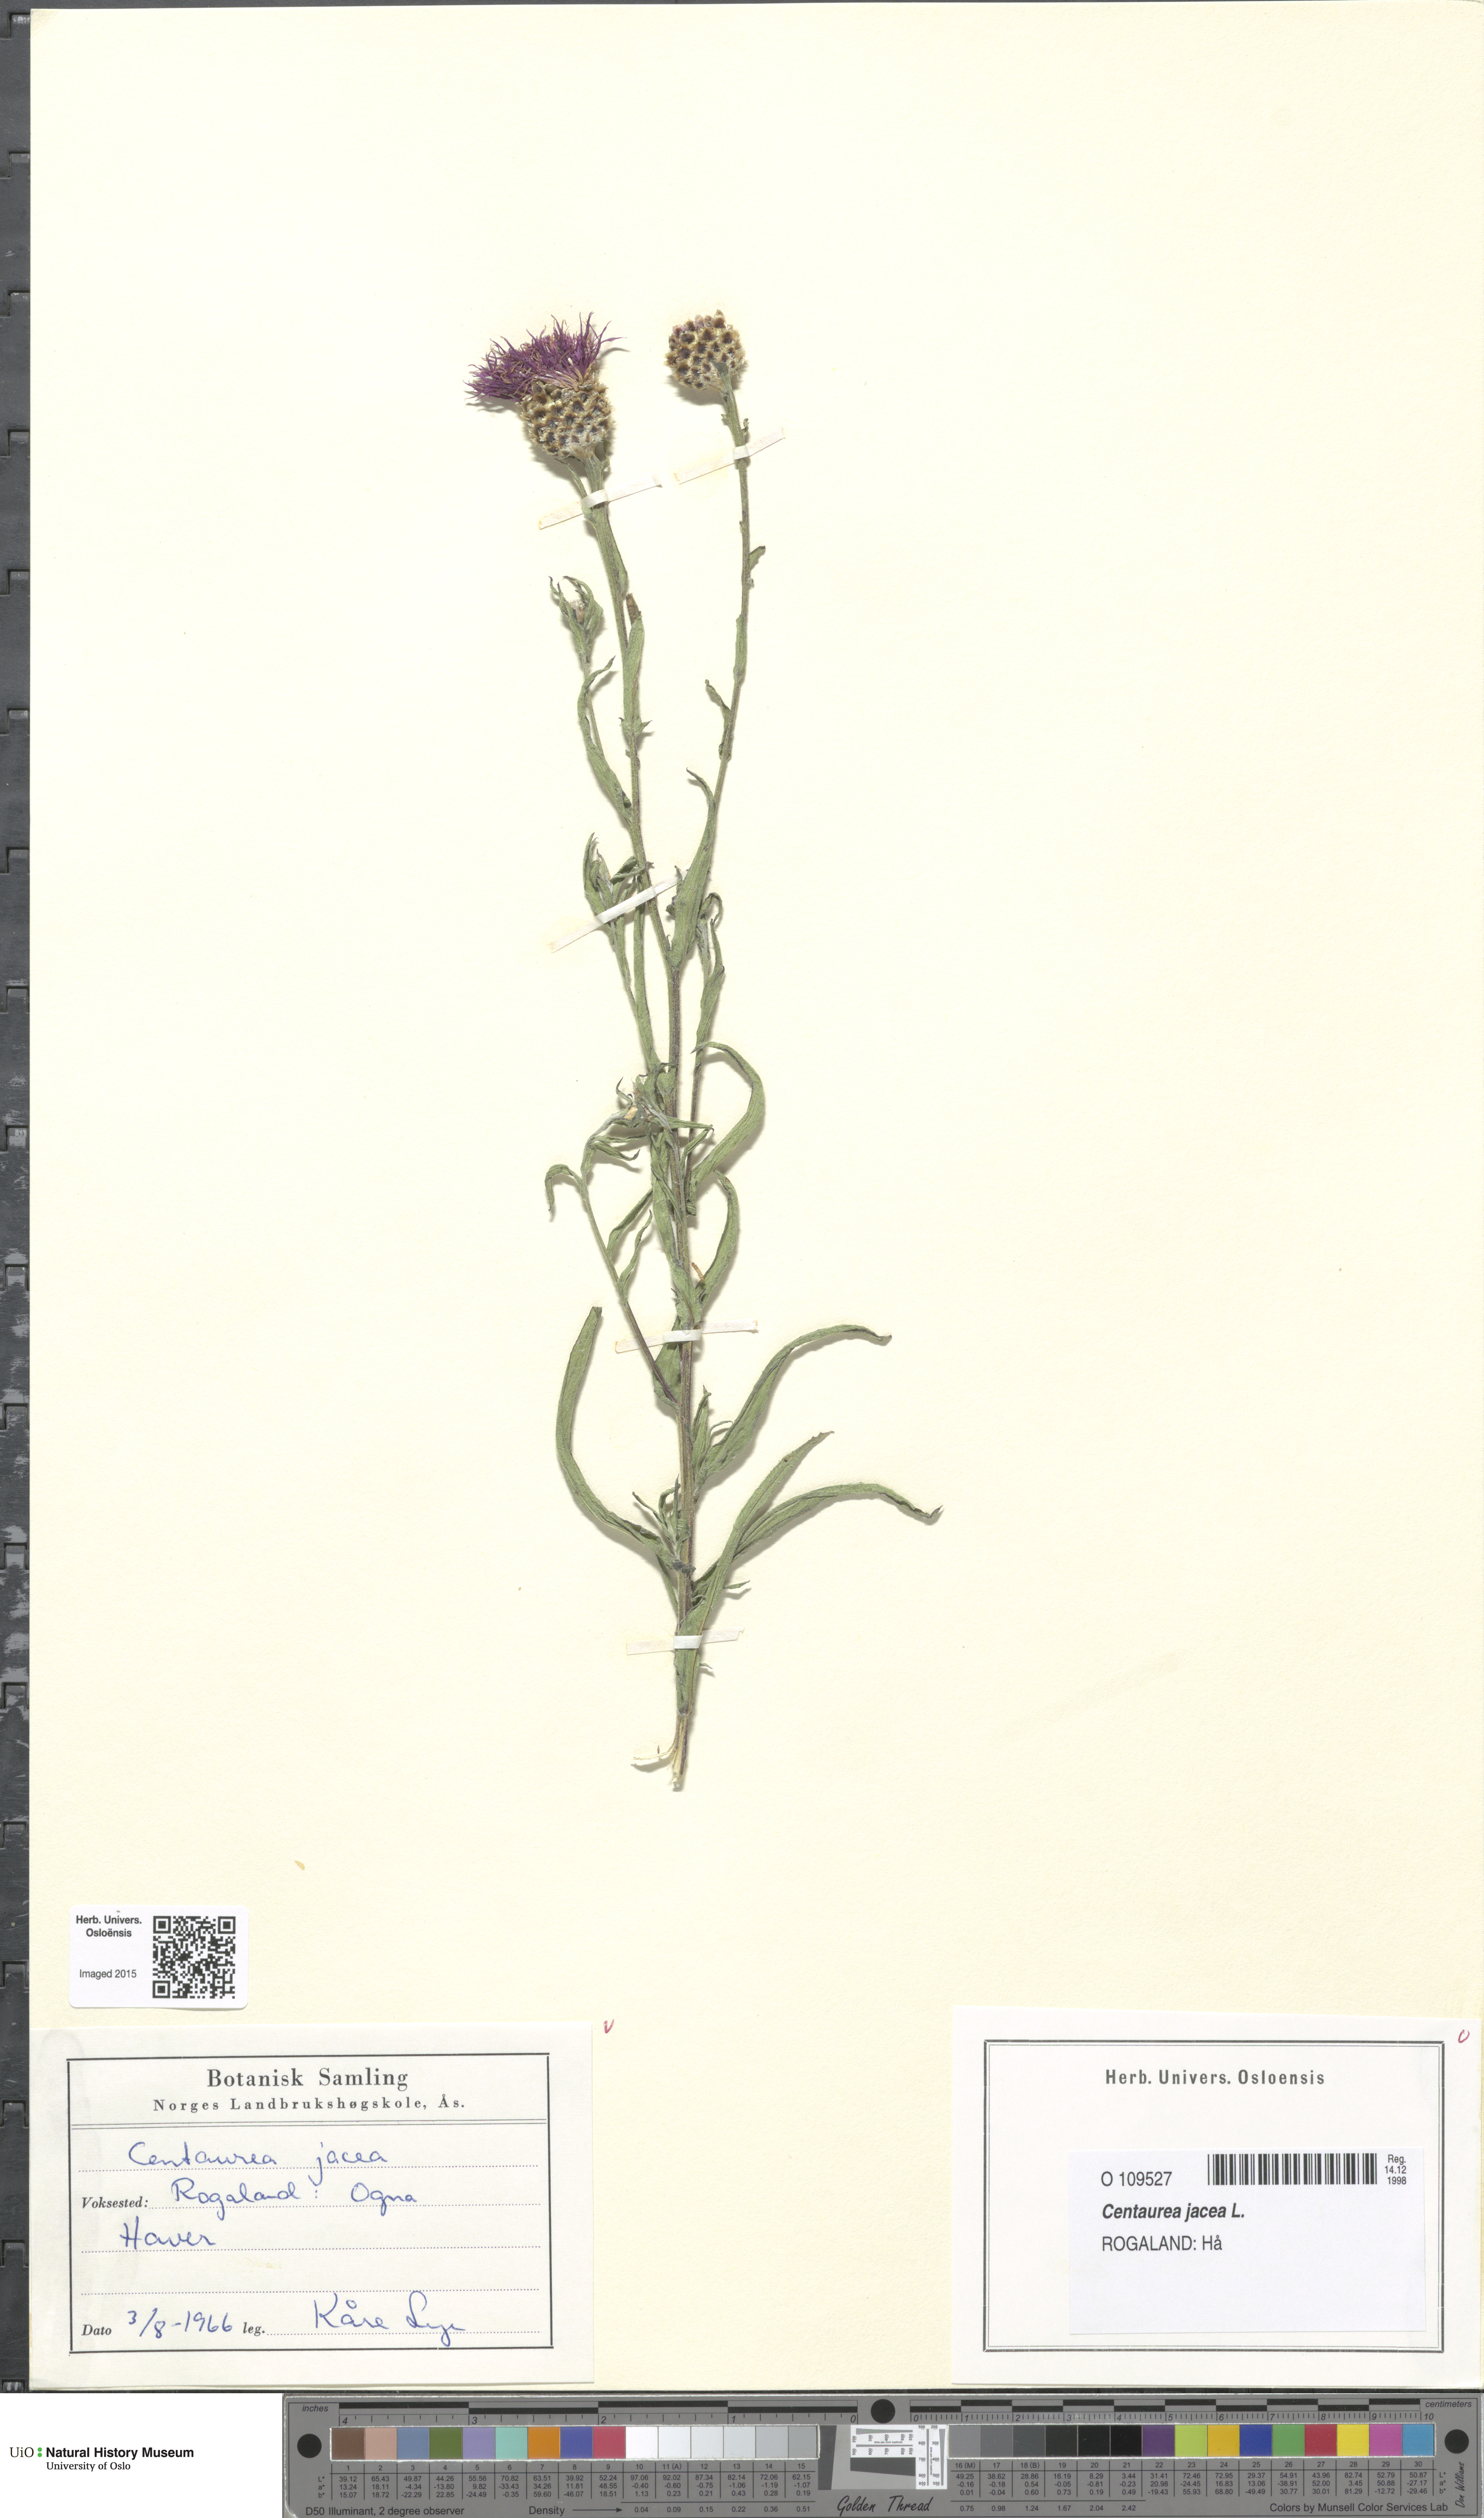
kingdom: Plantae
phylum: Tracheophyta
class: Magnoliopsida
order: Asterales
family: Asteraceae
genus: Centaurea
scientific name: Centaurea jacea
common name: Brown knapweed
